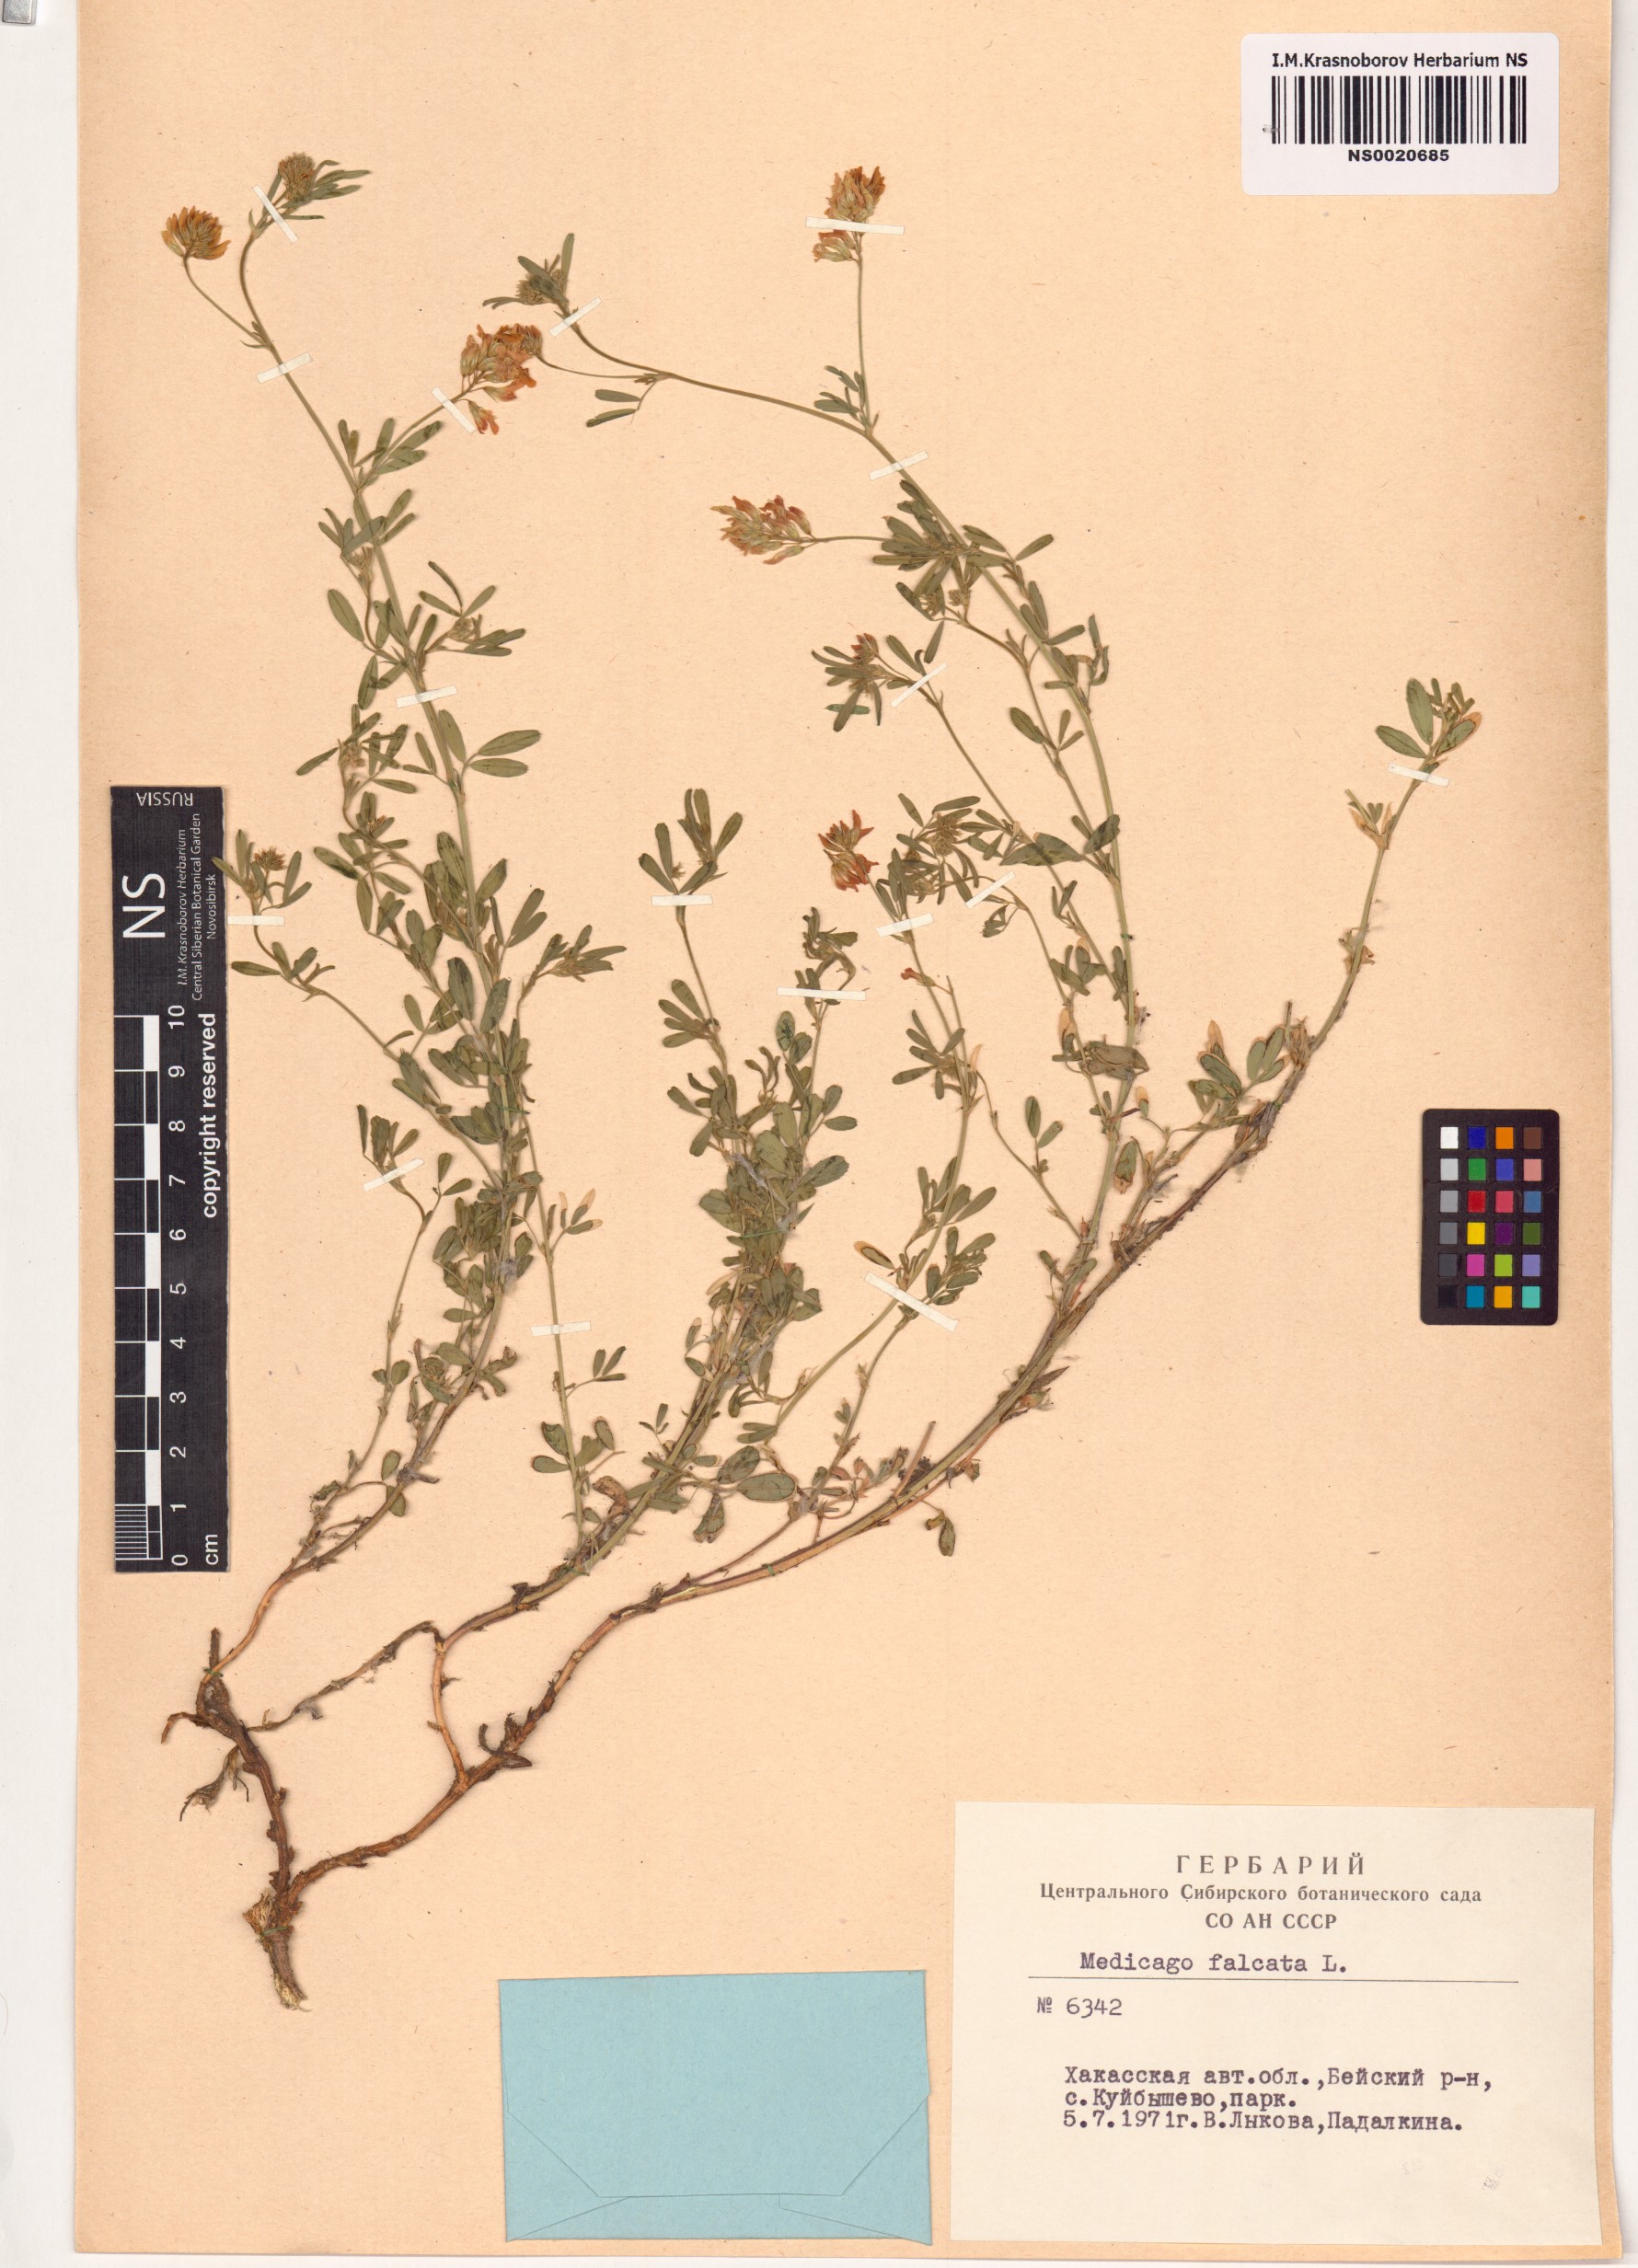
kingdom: Plantae
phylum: Tracheophyta
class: Magnoliopsida
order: Fabales
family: Fabaceae
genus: Medicago
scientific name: Medicago falcata
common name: Sickle medick
